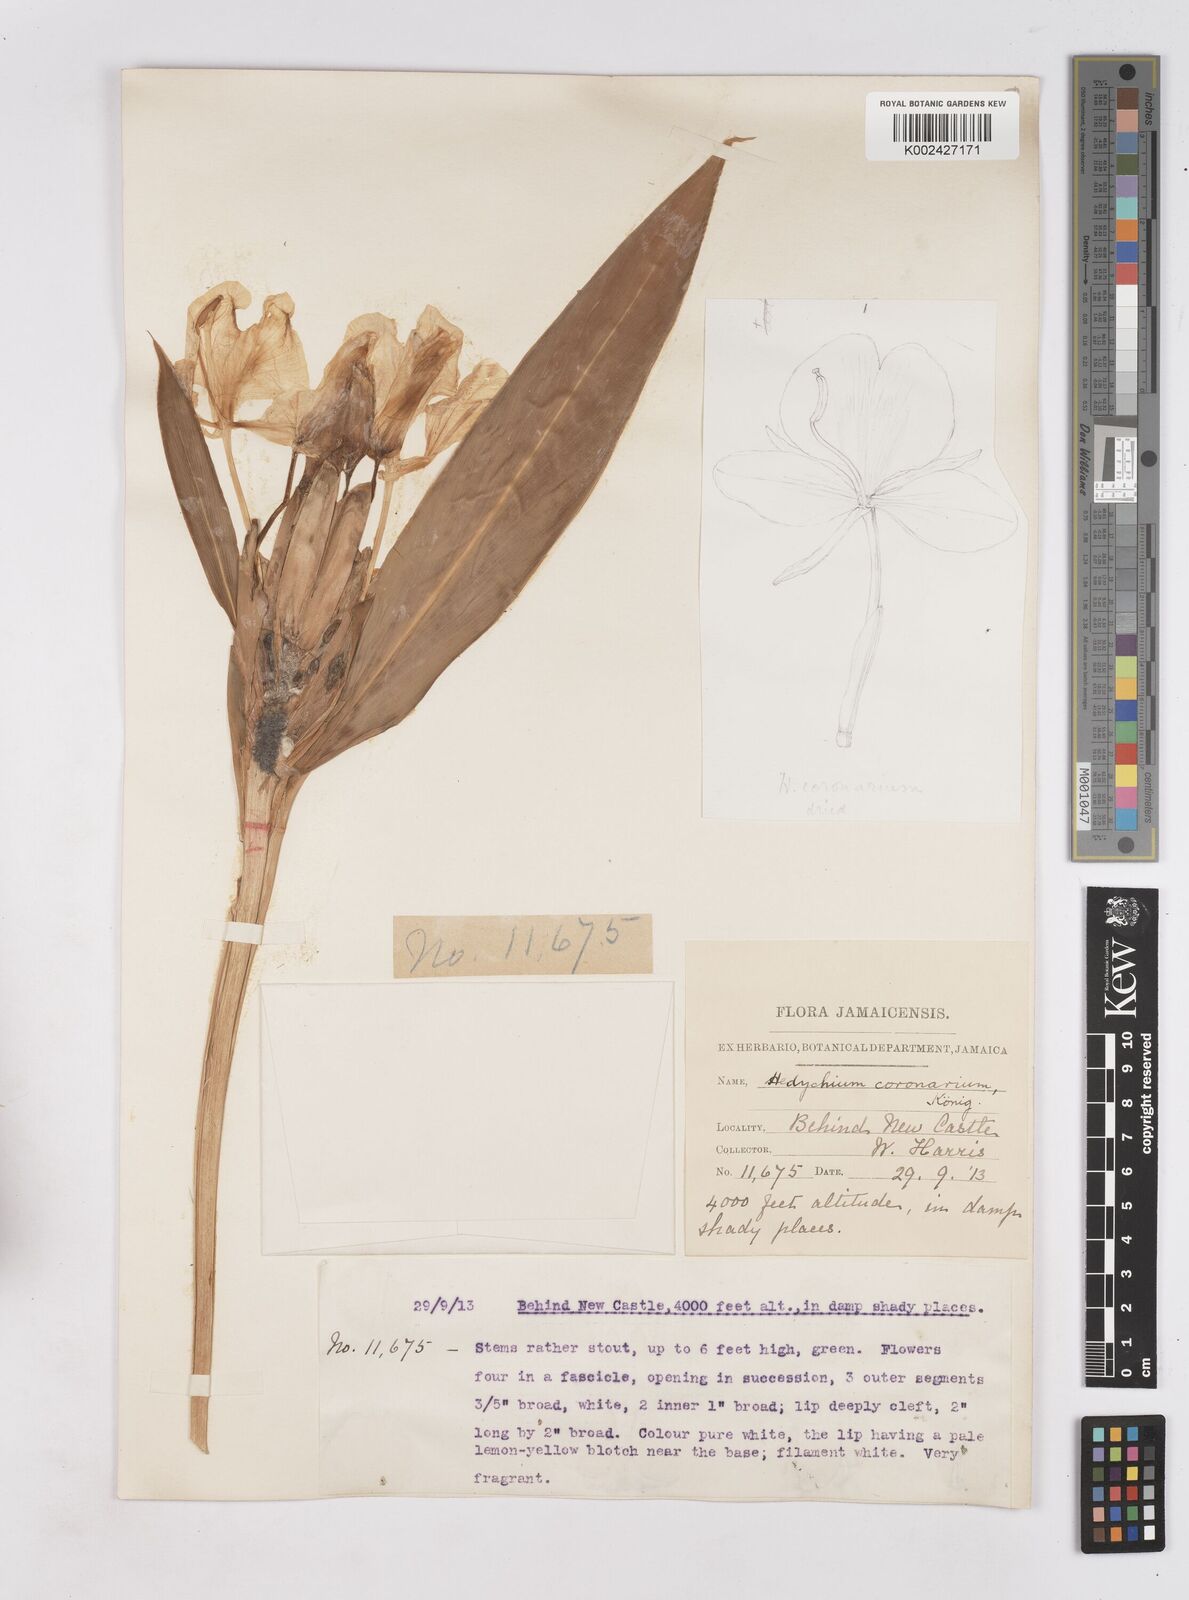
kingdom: Plantae
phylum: Tracheophyta
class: Liliopsida
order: Zingiberales
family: Zingiberaceae
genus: Hedychium
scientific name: Hedychium coronarium
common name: White garland-lily
